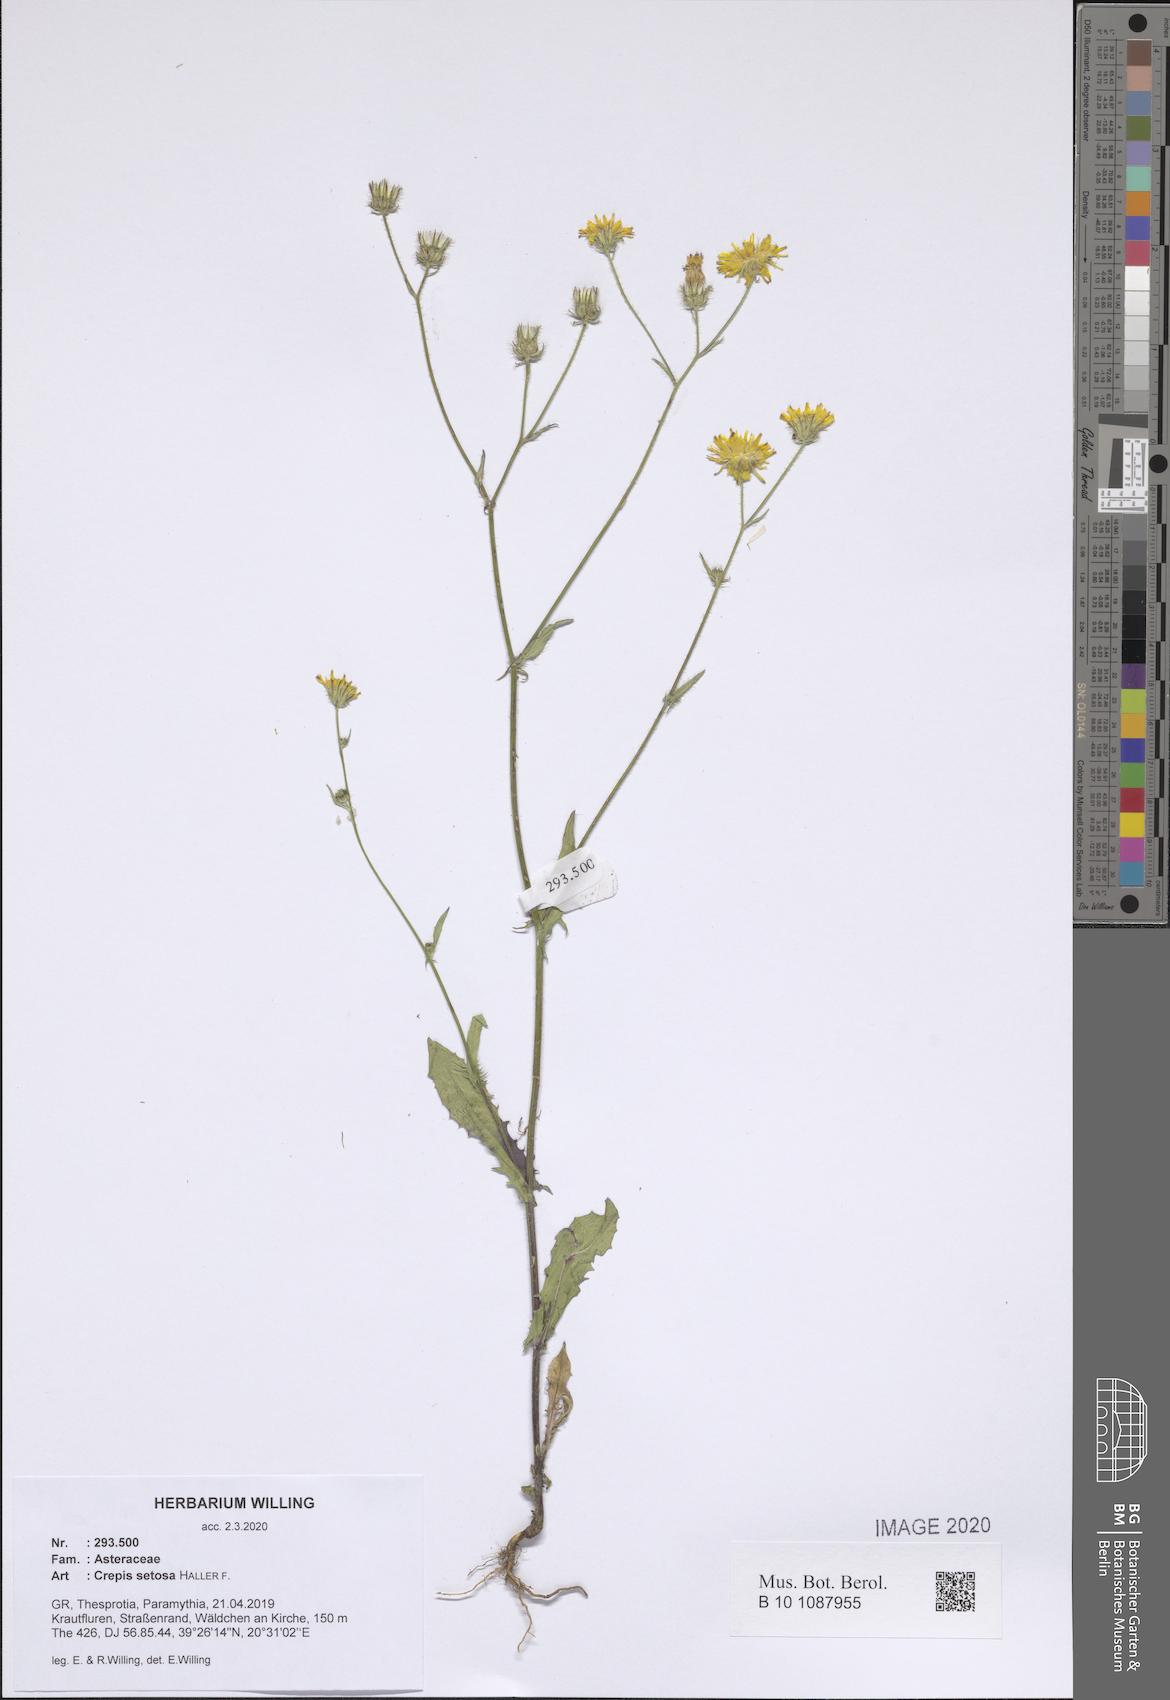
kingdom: Plantae
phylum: Tracheophyta
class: Magnoliopsida
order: Asterales
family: Asteraceae
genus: Crepis
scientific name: Crepis setosa
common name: Bristly hawk's-beard
